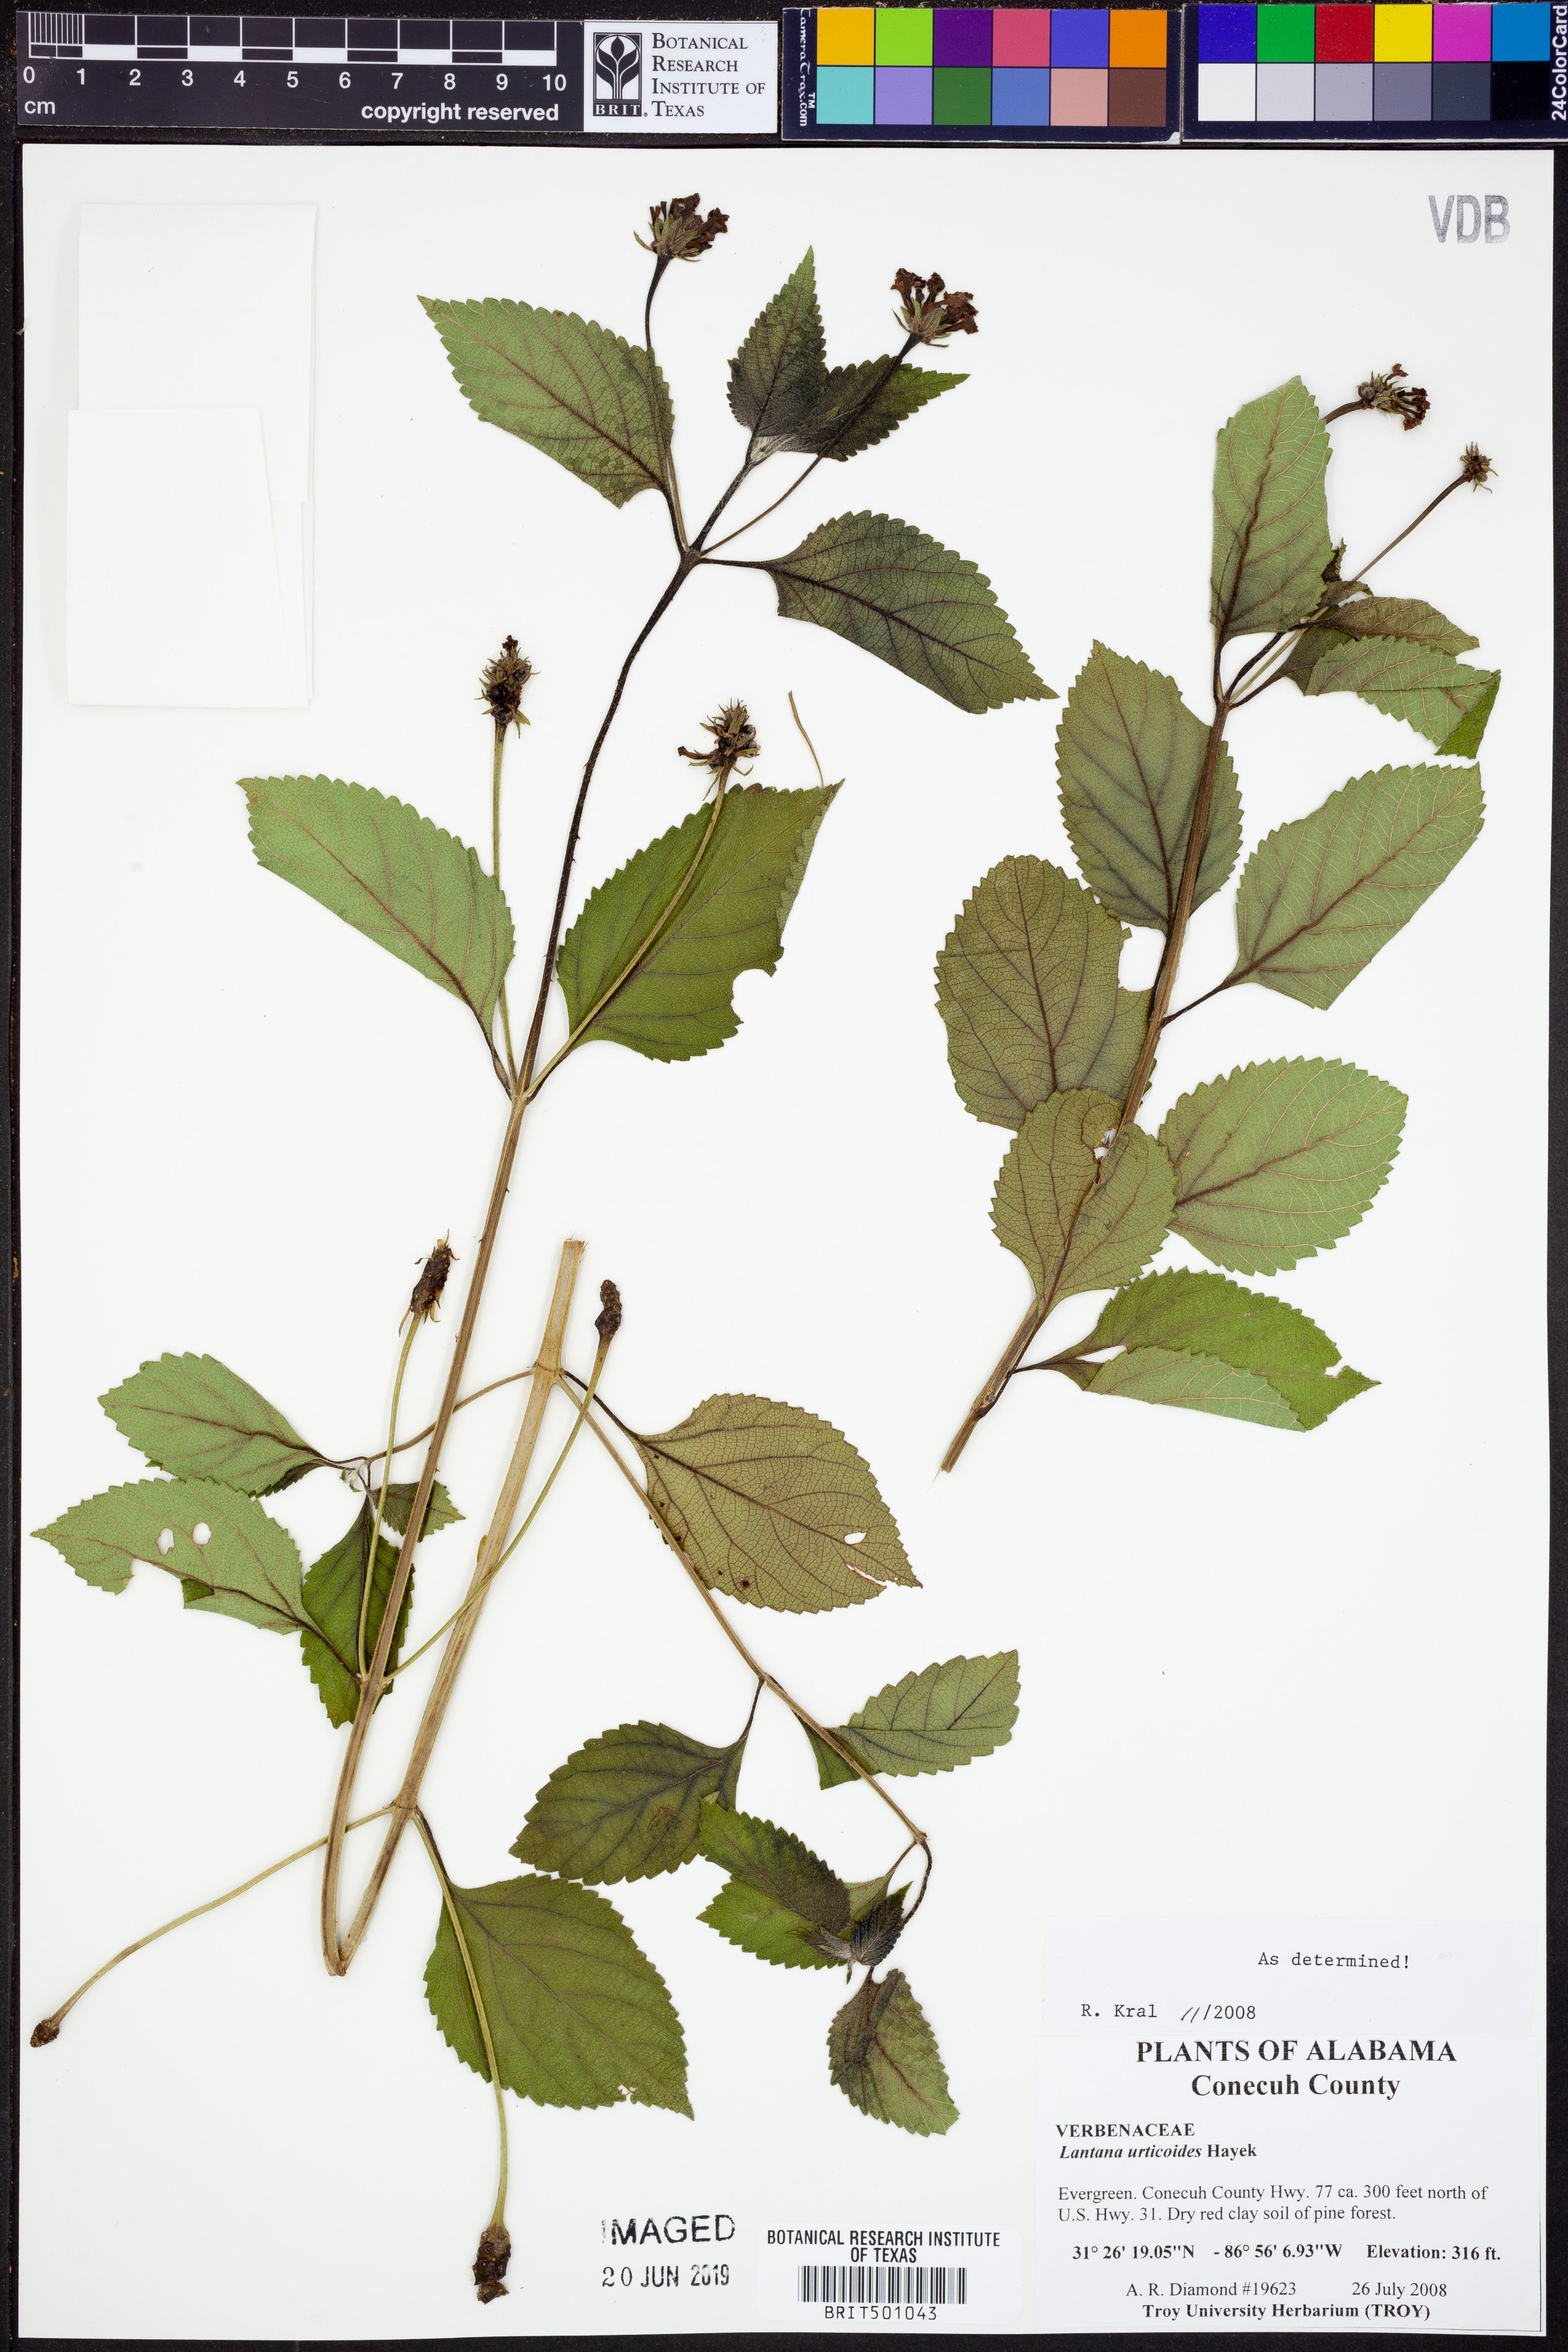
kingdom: Plantae
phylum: Tracheophyta
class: Magnoliopsida
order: Lamiales
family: Verbenaceae
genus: Lantana
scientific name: Lantana urticoides
